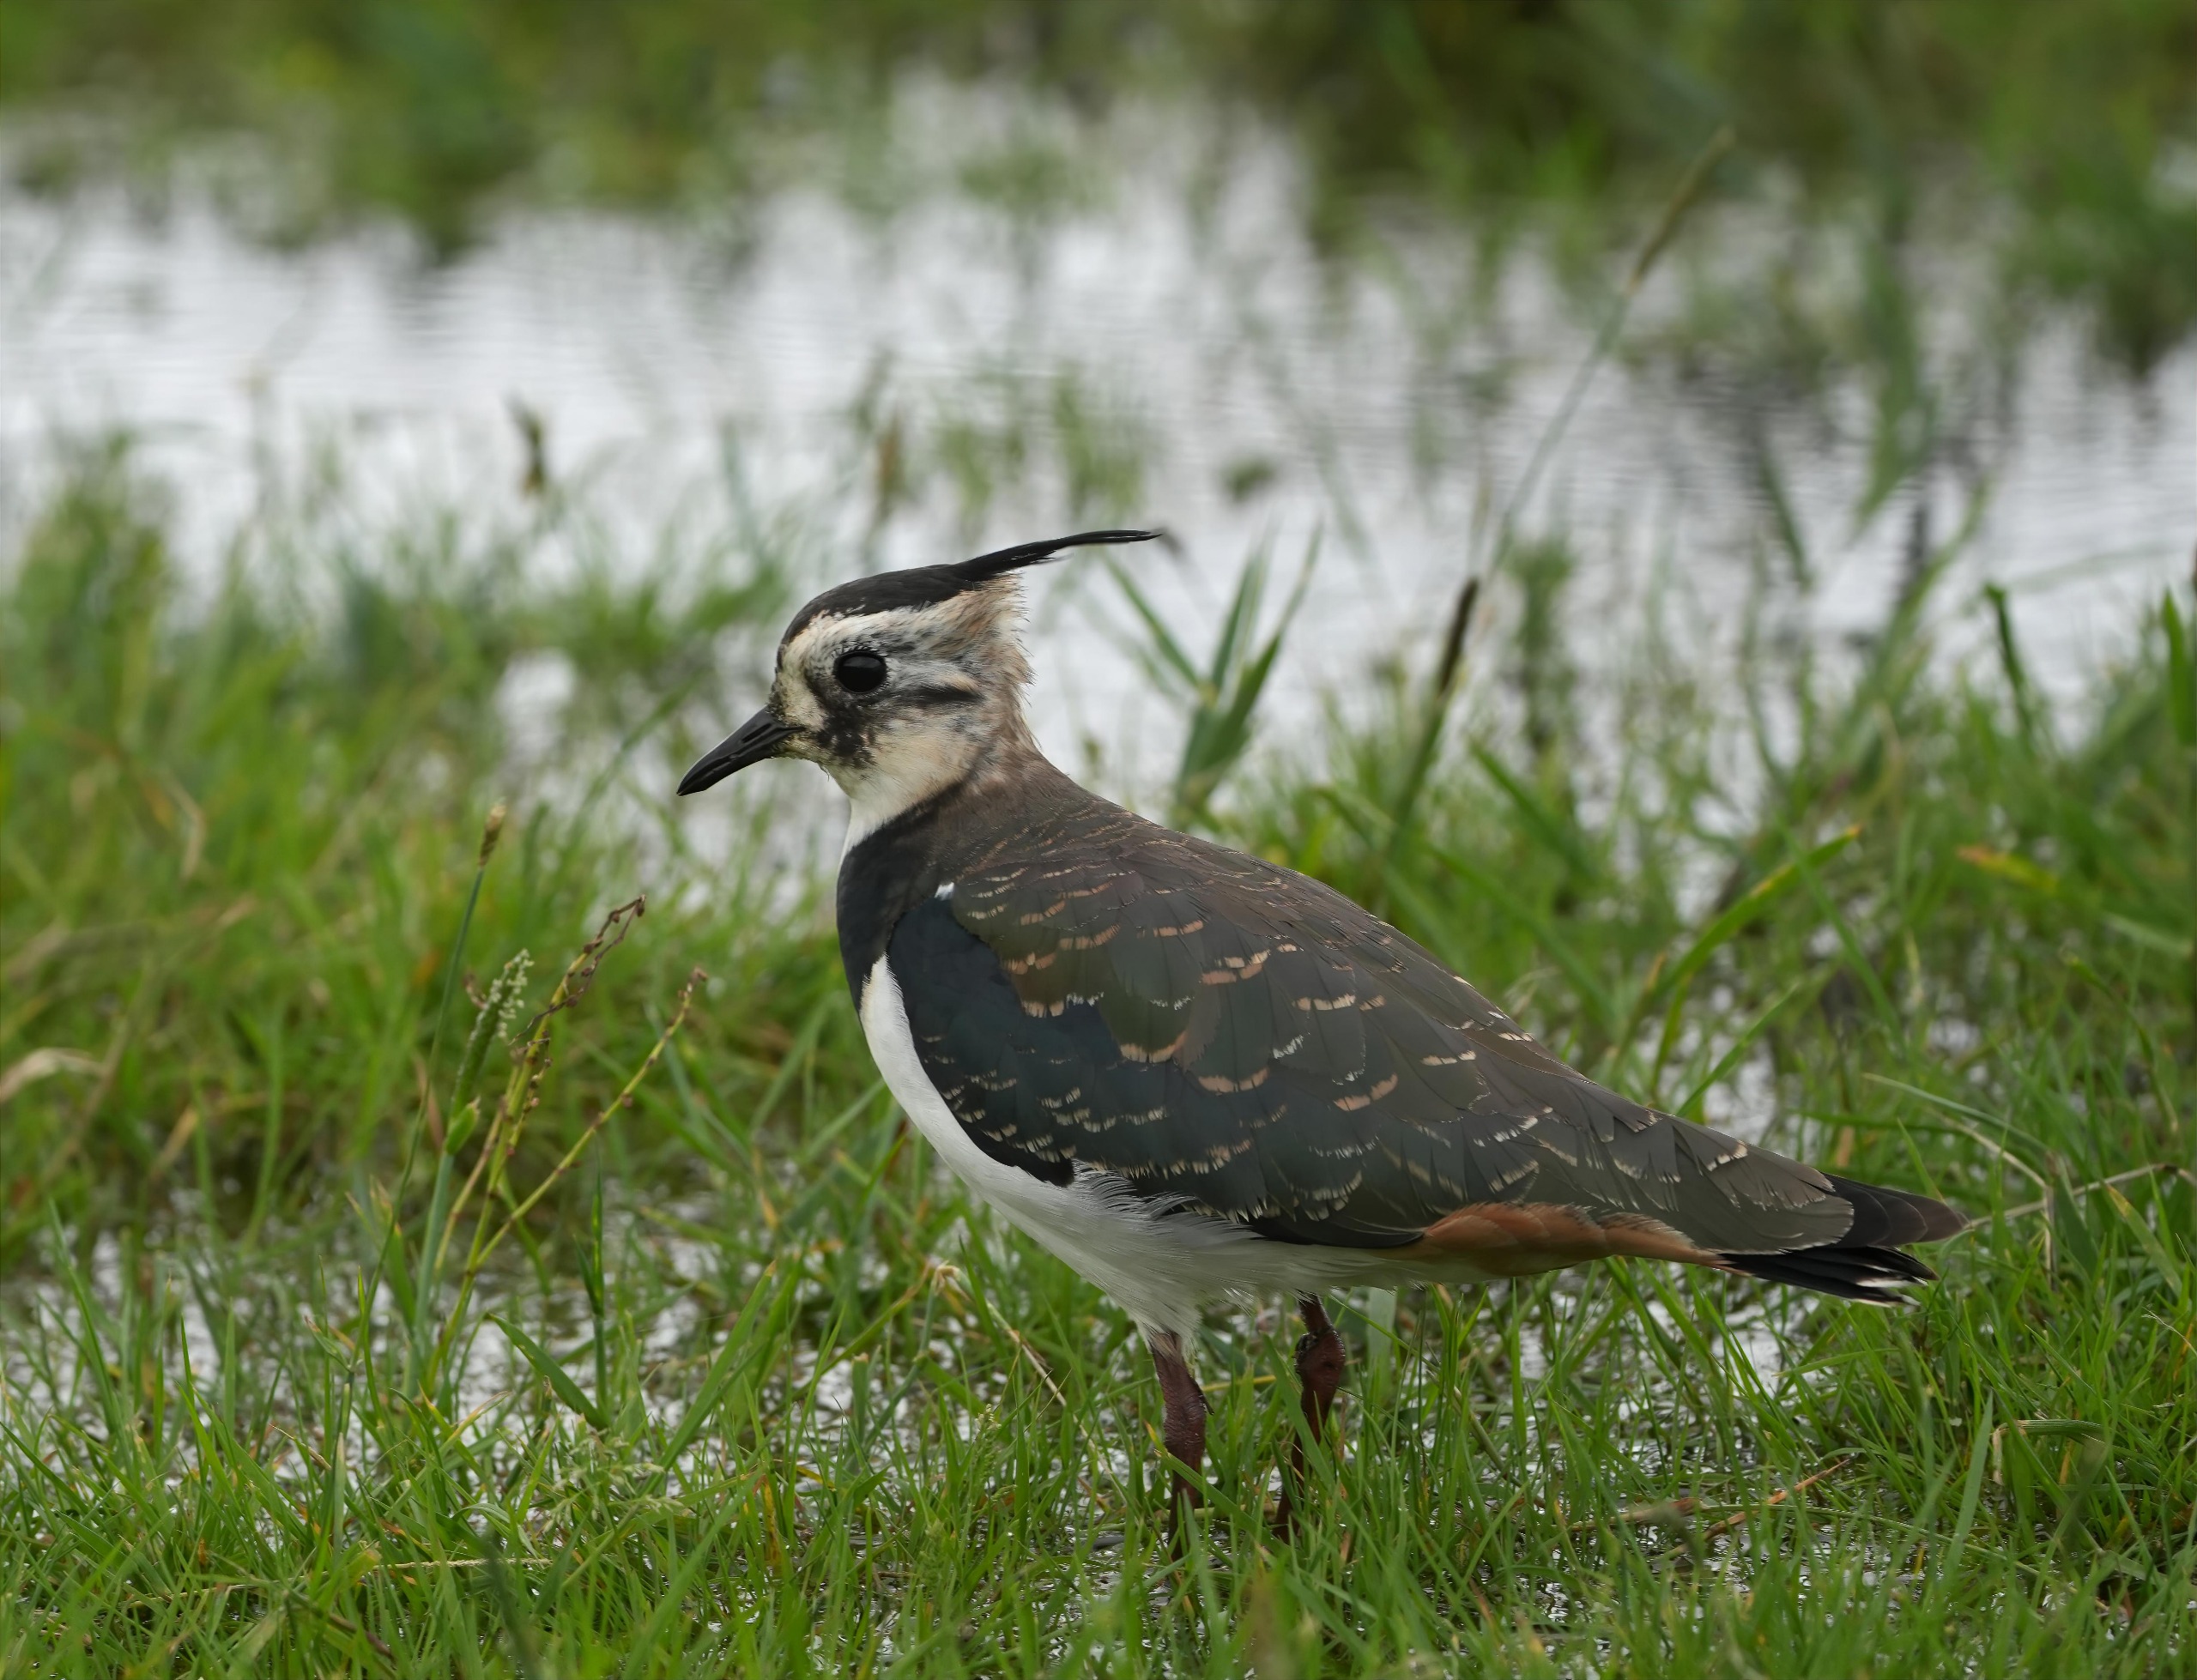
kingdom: Animalia
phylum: Chordata
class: Aves
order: Charadriiformes
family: Charadriidae
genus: Vanellus
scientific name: Vanellus vanellus
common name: Vibe
